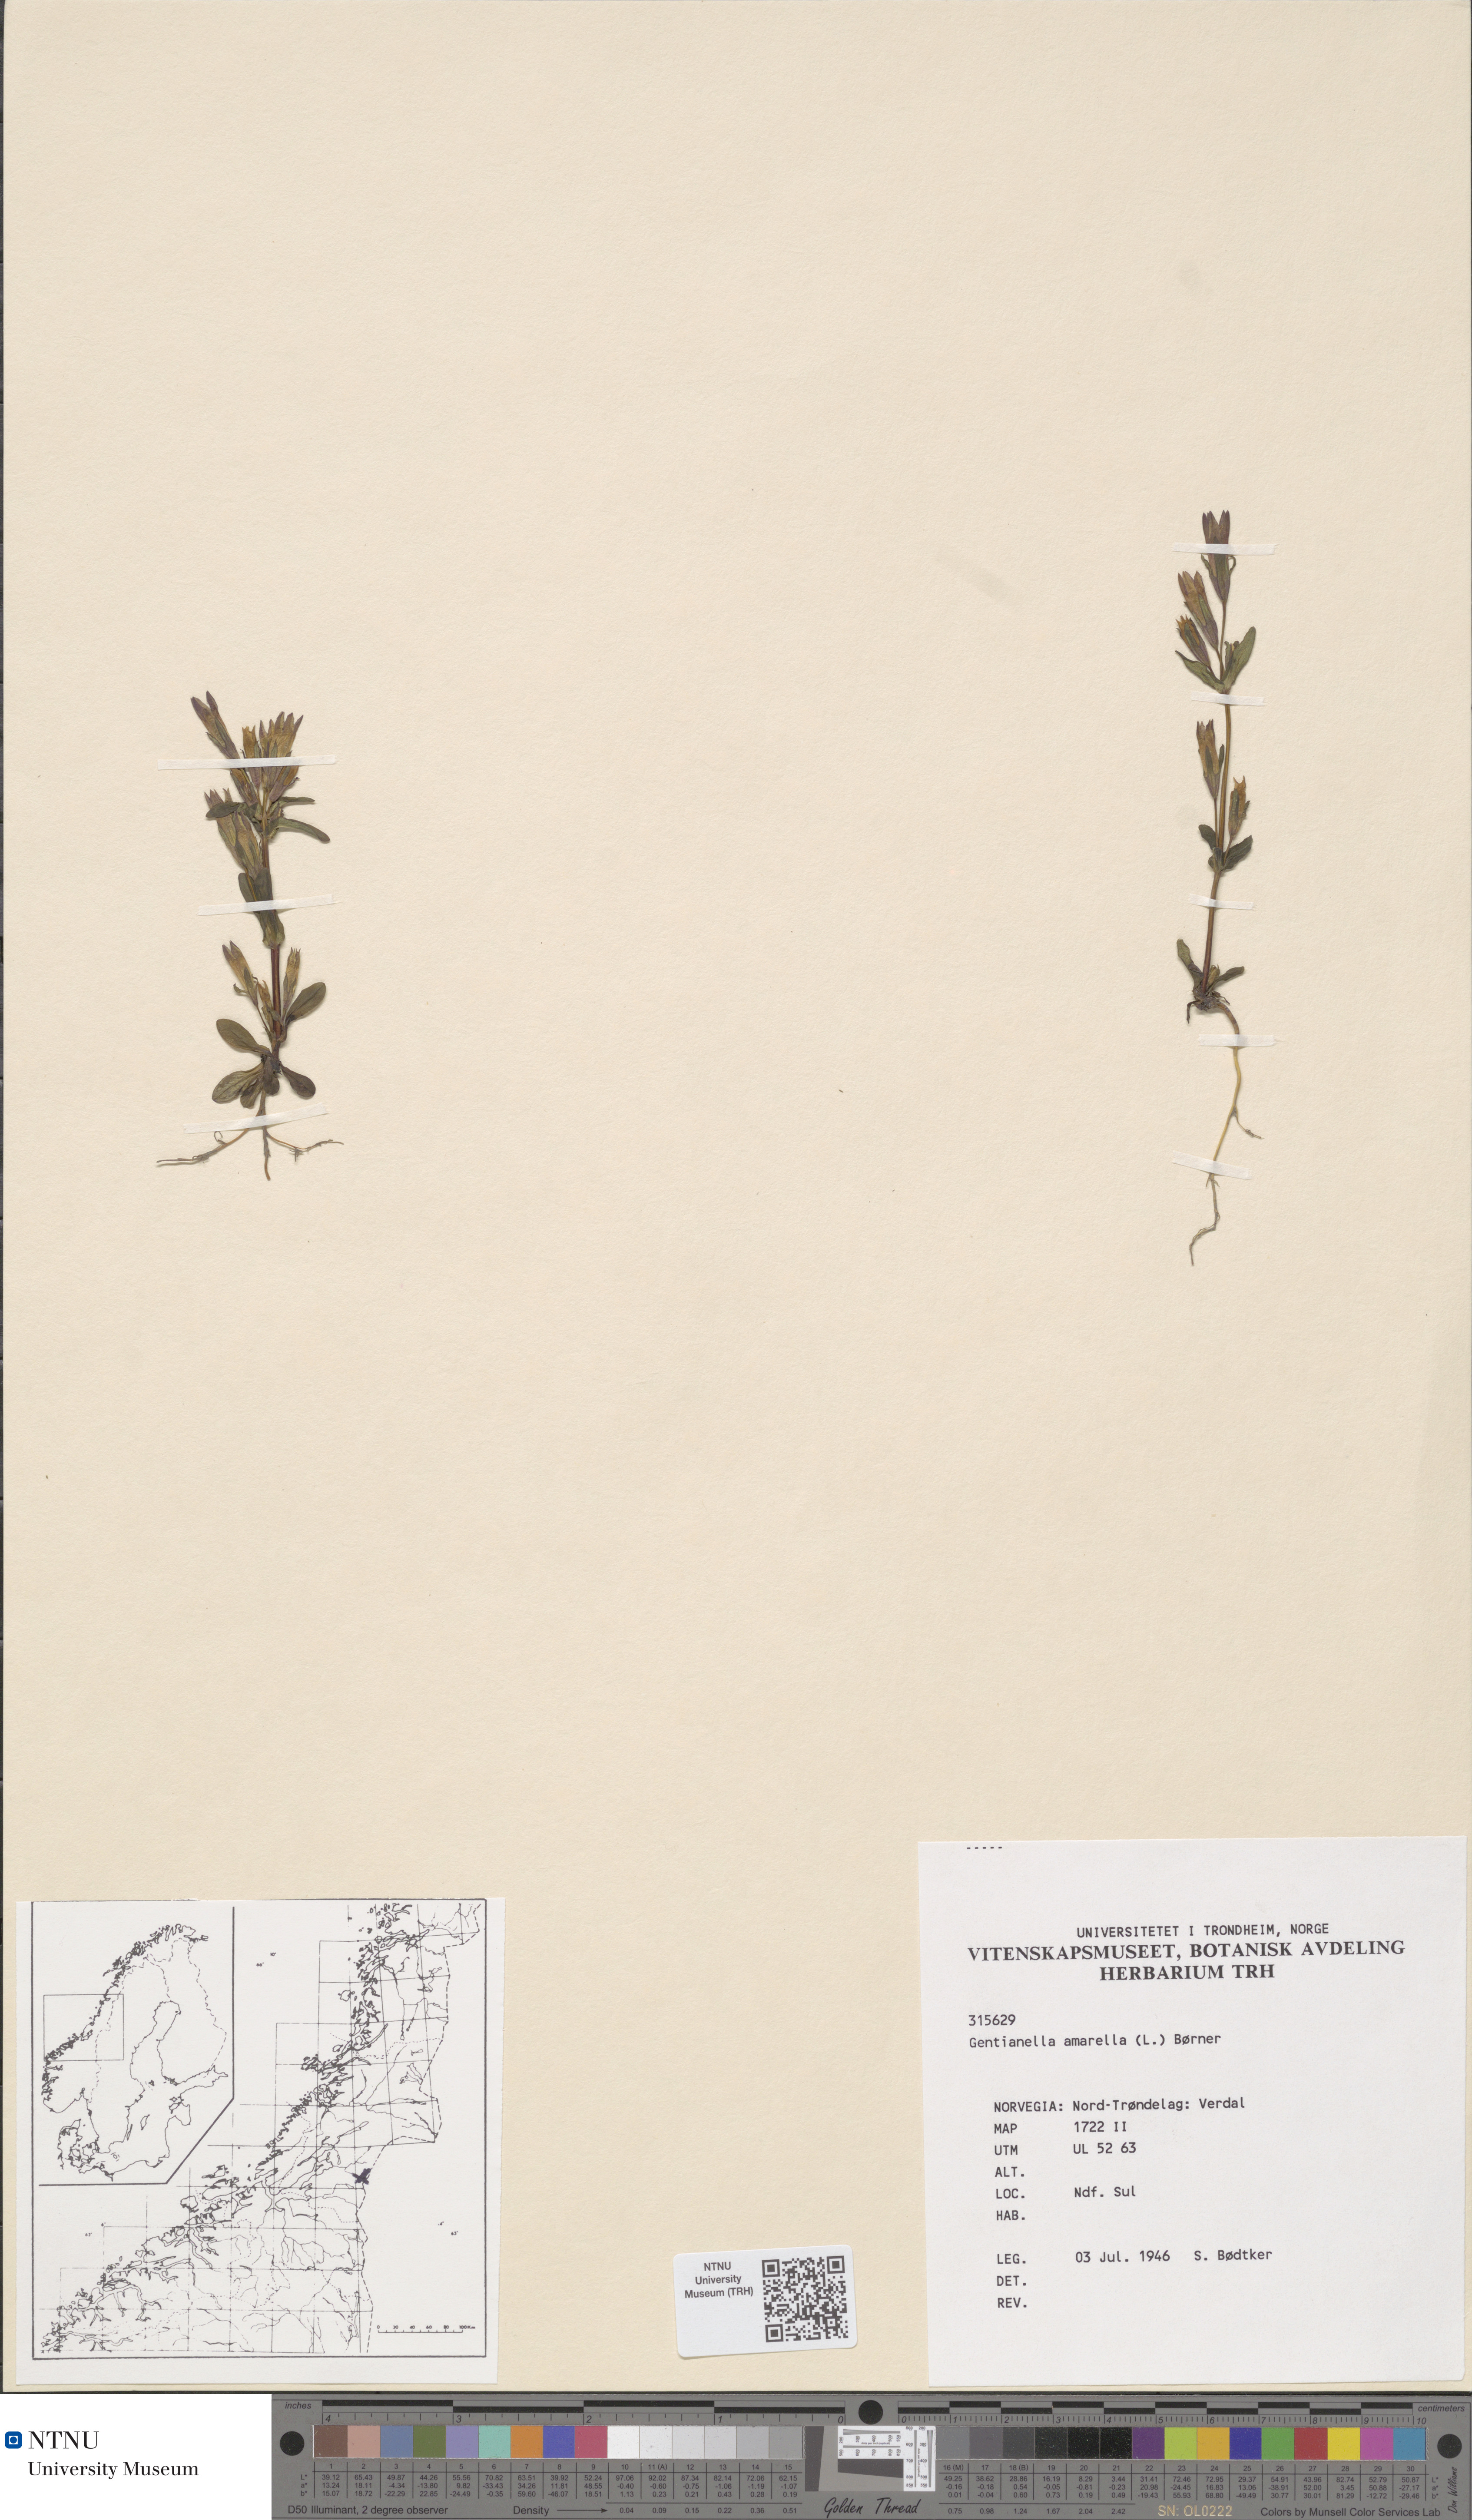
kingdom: Plantae
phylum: Tracheophyta
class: Magnoliopsida
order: Gentianales
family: Gentianaceae
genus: Gentianella
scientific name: Gentianella amarella
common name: Autumn gentian
